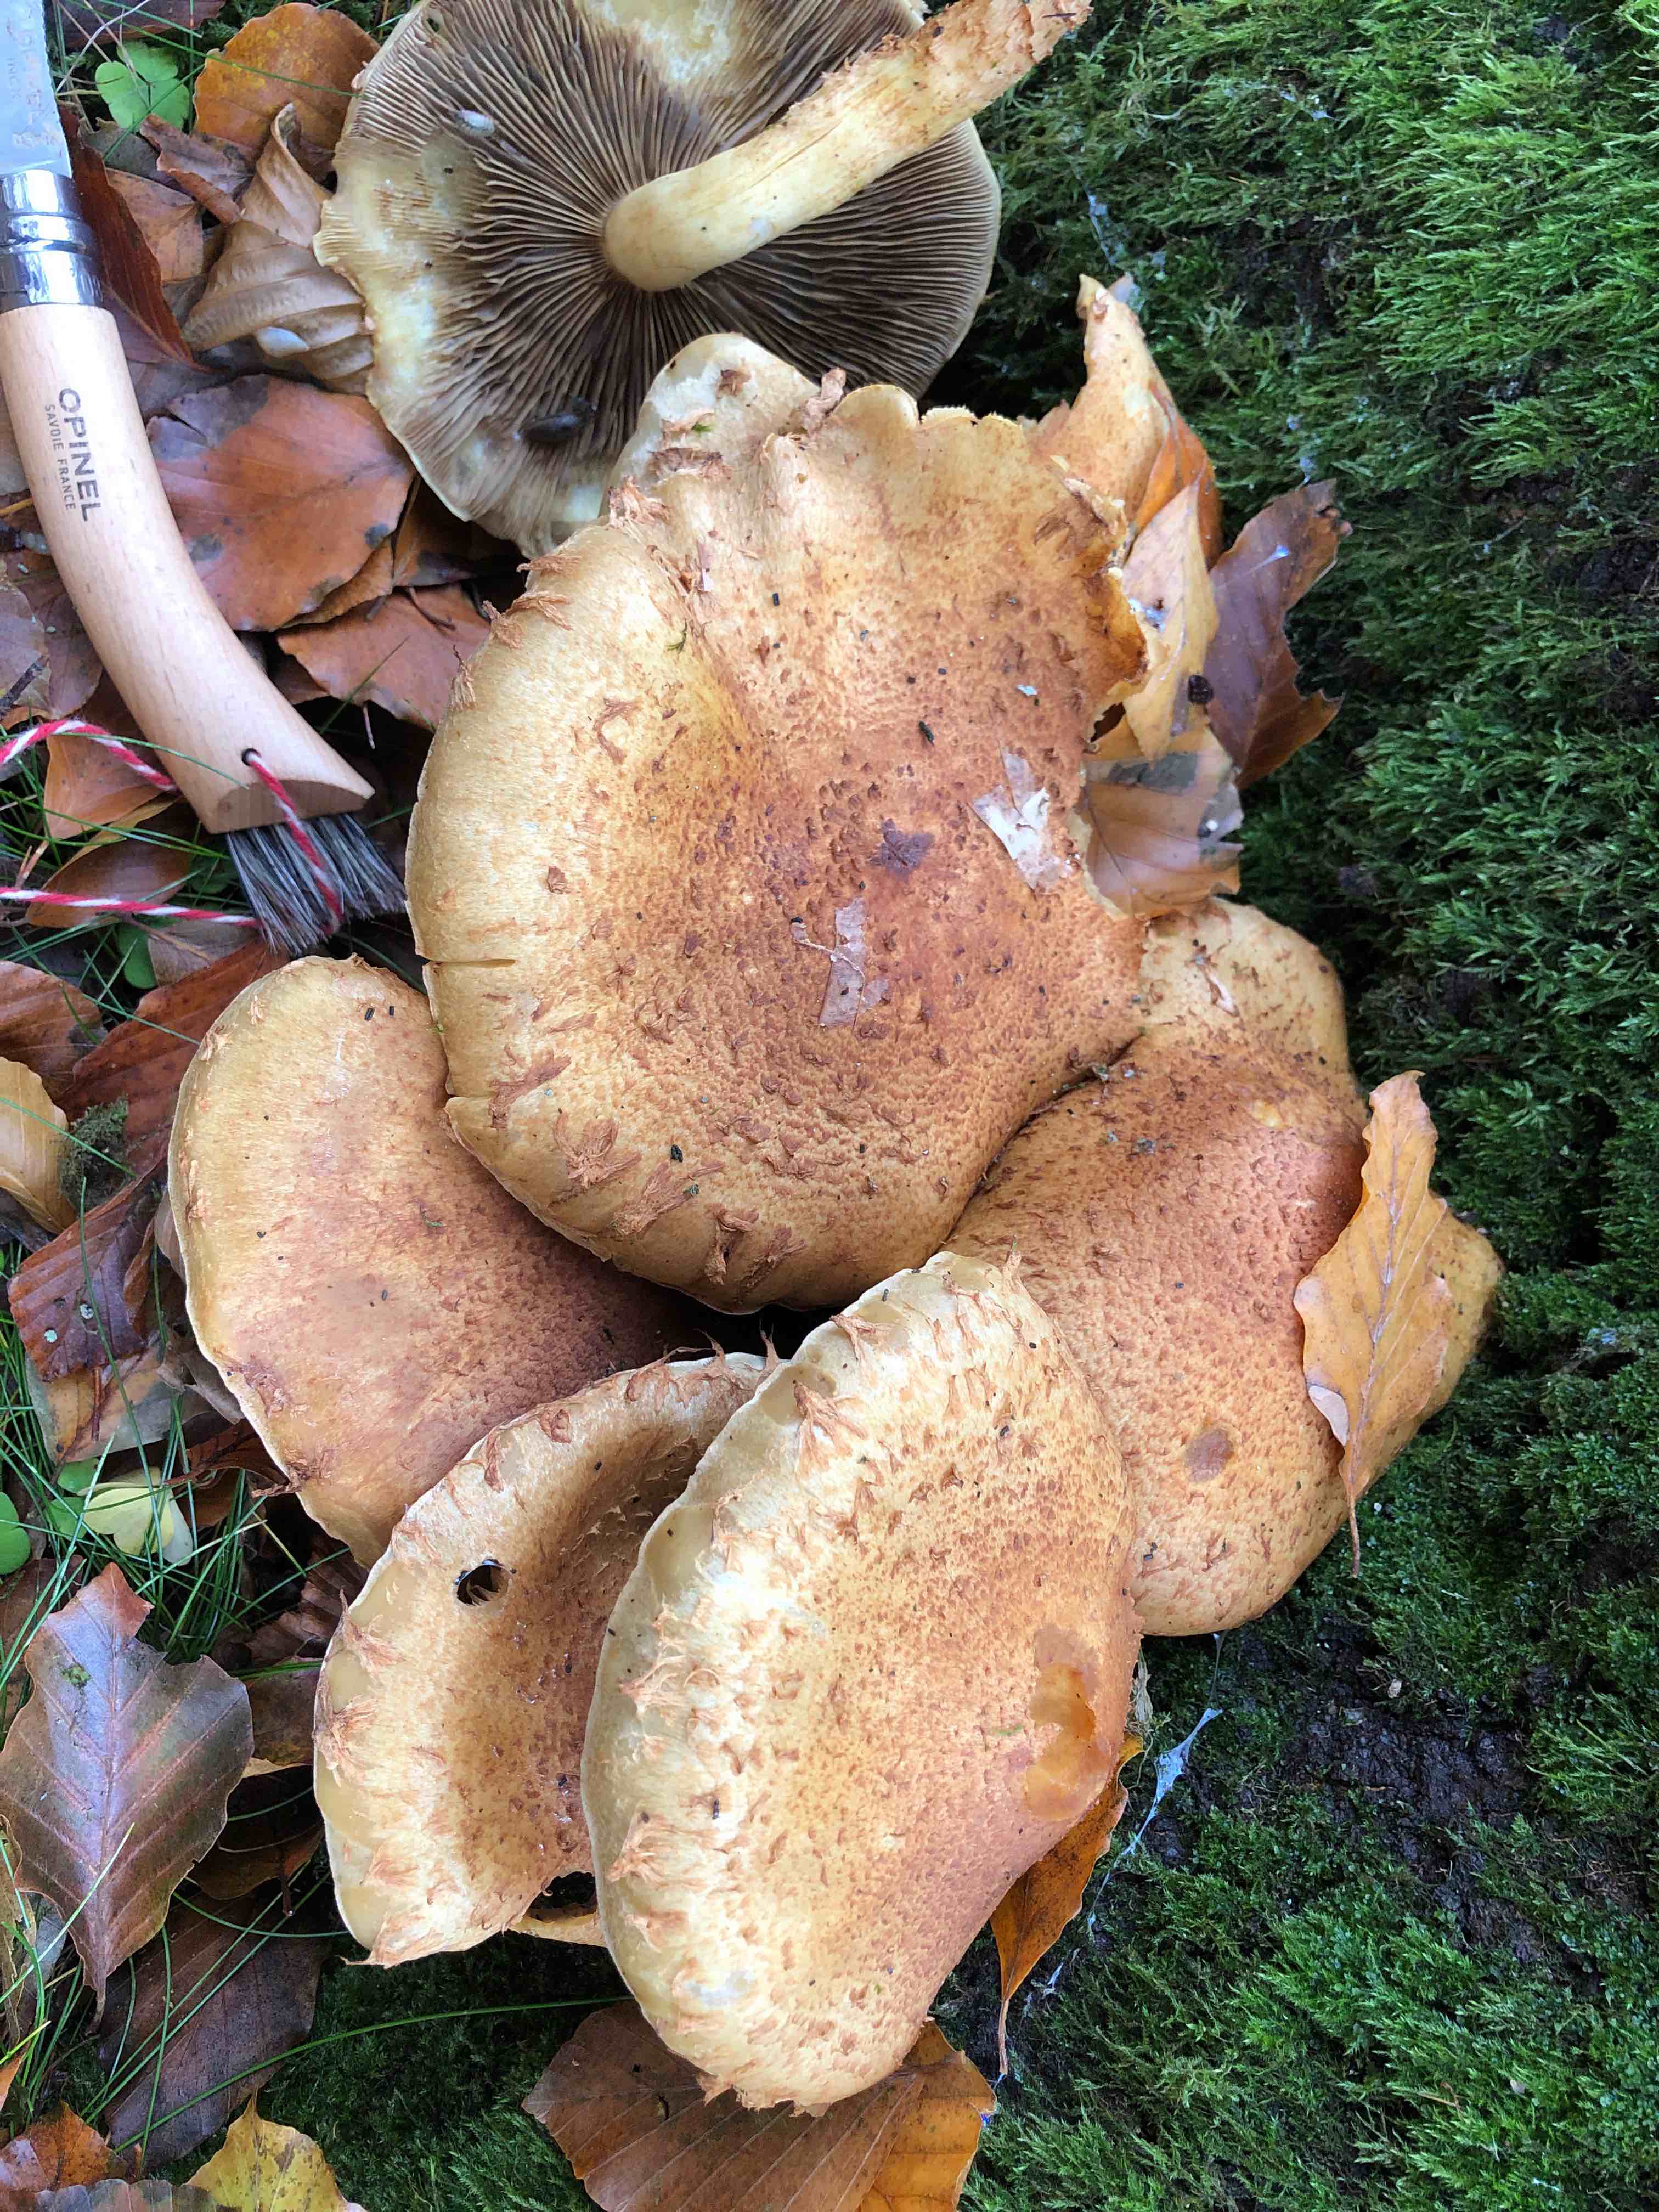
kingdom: Fungi
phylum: Basidiomycota
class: Agaricomycetes
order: Agaricales
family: Strophariaceae
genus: Pholiota
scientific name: Pholiota squarrosa
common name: krumskællet skælhat
